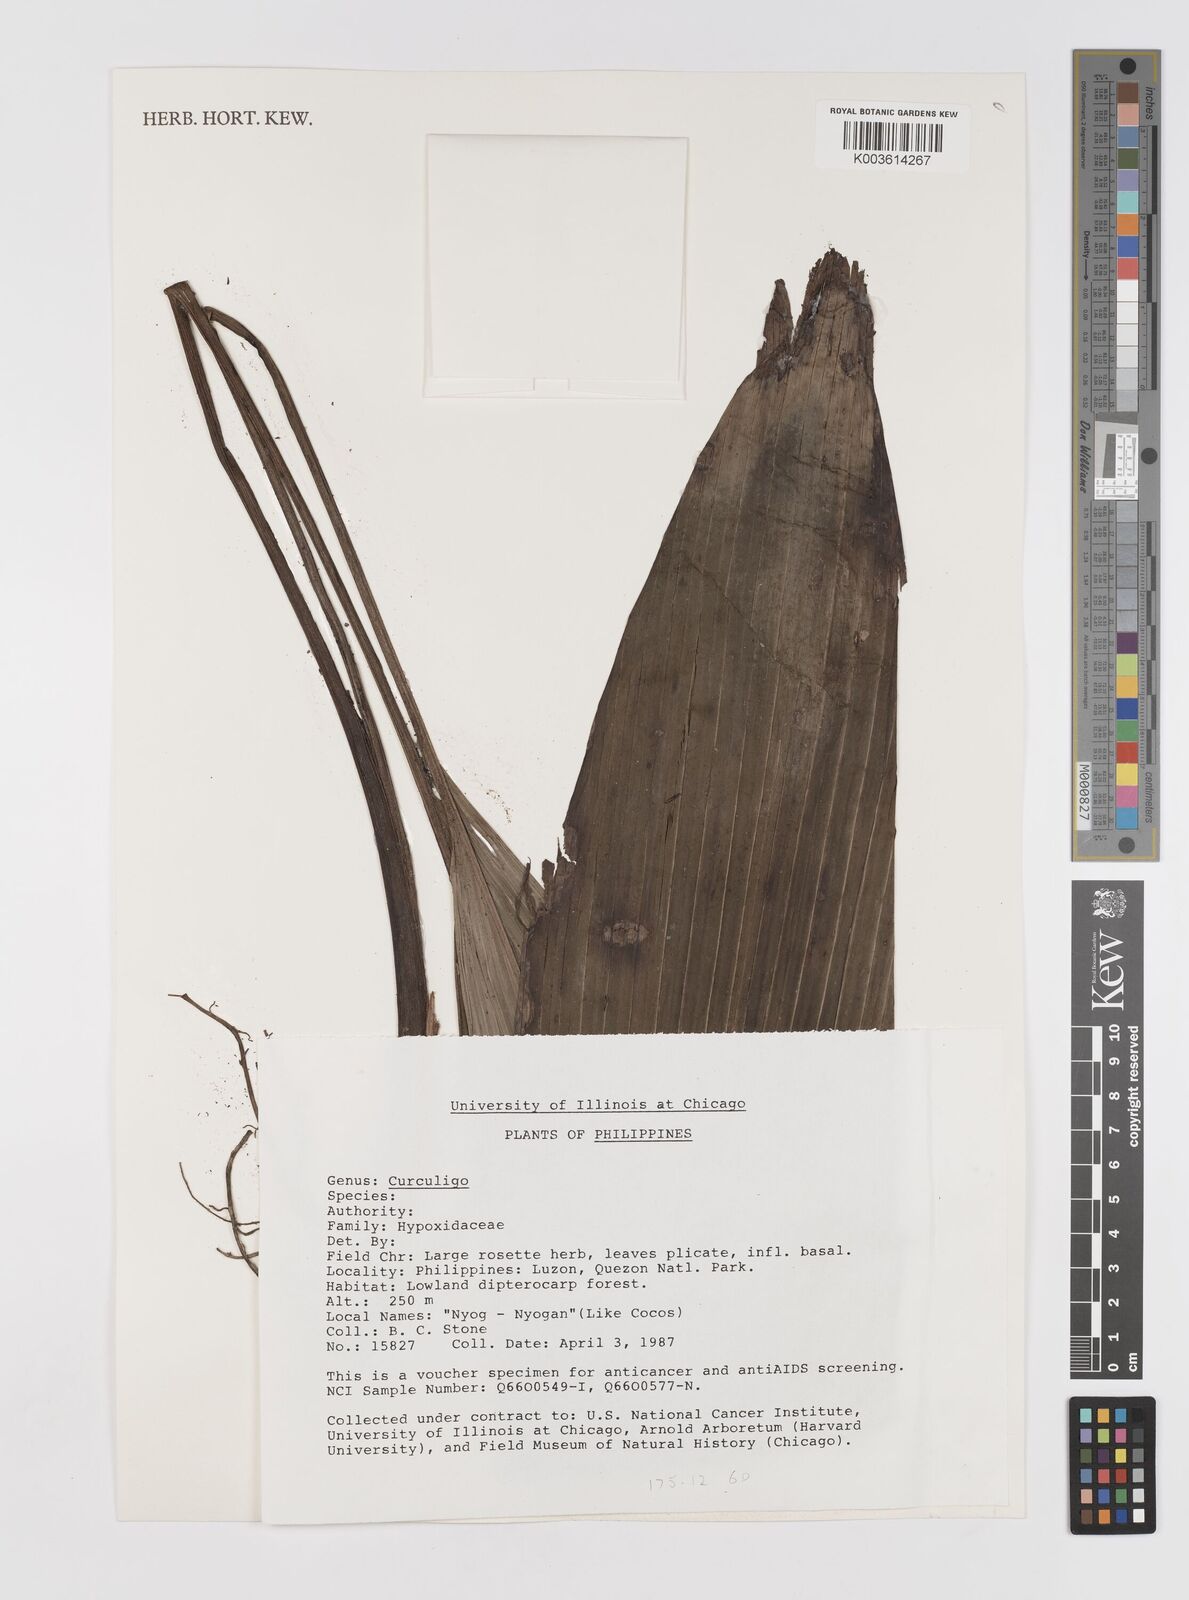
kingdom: Plantae
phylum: Tracheophyta
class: Liliopsida
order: Asparagales
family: Hypoxidaceae
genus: Curculigo
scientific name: Curculigo
